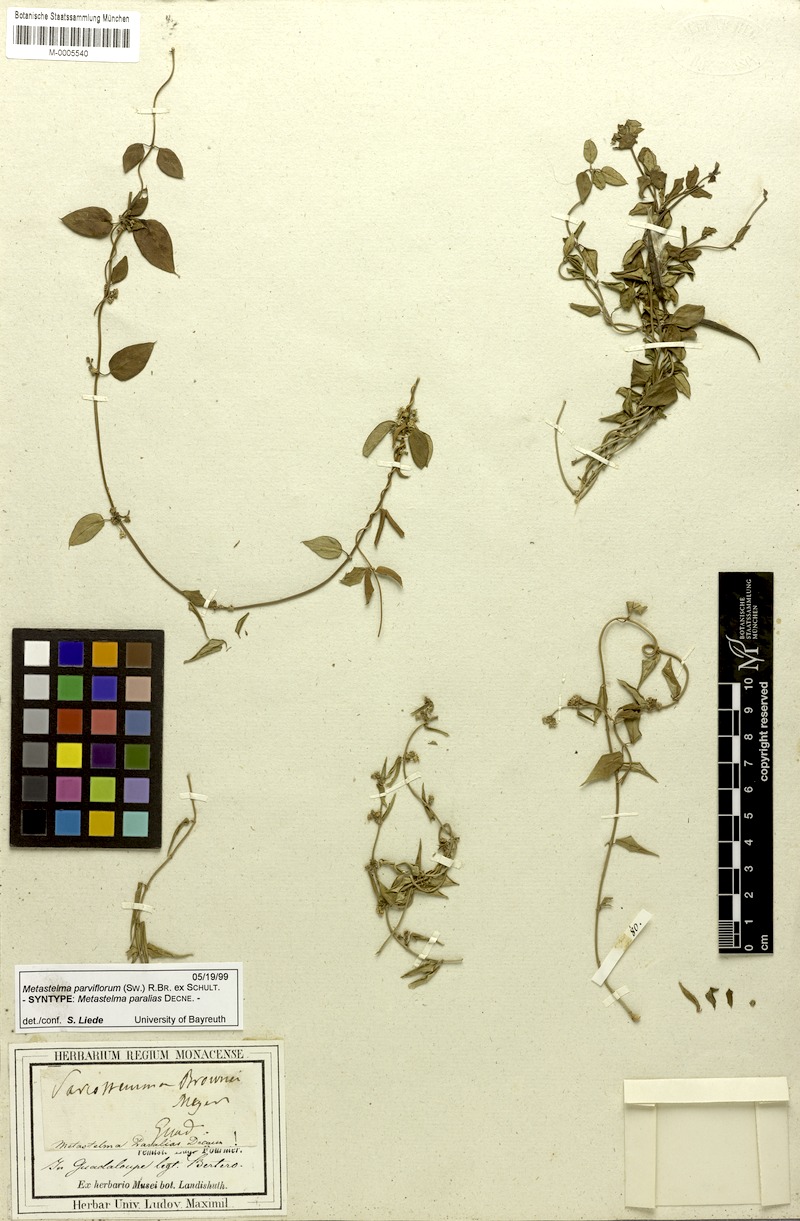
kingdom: Plantae
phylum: Tracheophyta
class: Magnoliopsida
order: Gentianales
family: Apocynaceae
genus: Metastelma
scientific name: Metastelma parviflorum
